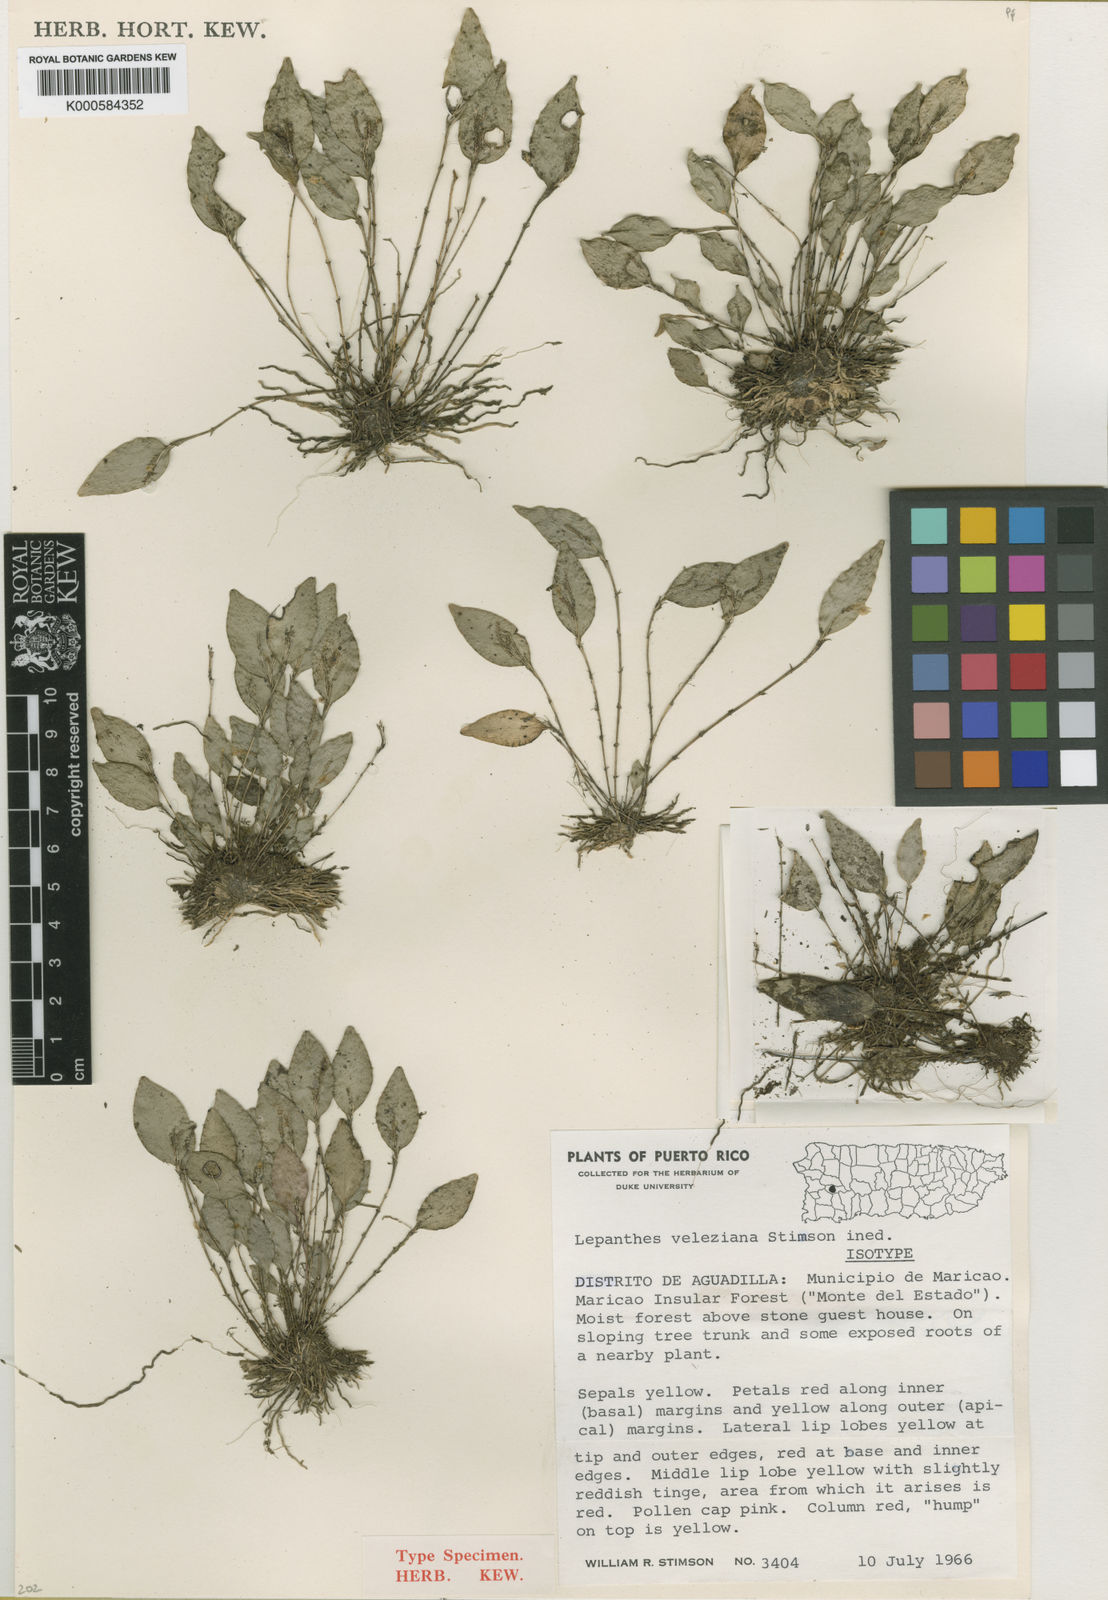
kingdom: Plantae
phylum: Tracheophyta
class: Liliopsida
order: Asparagales
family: Orchidaceae
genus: Lepanthes
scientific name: Lepanthes veleziana
